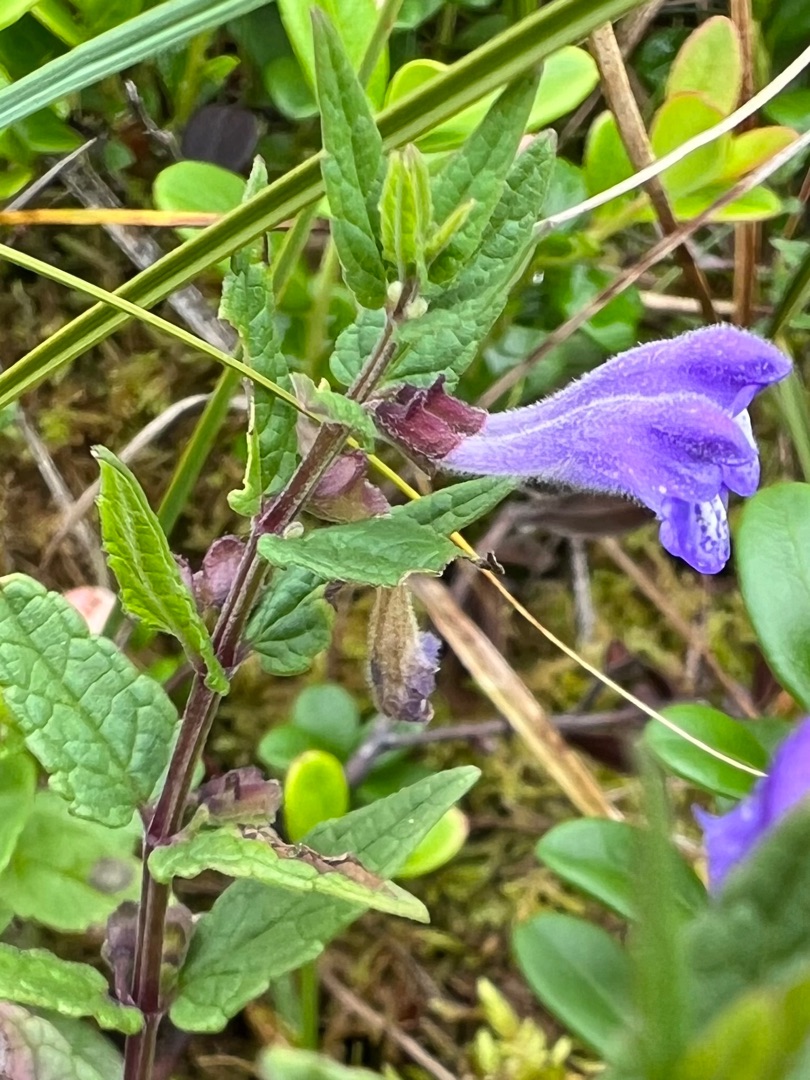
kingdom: Plantae
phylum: Tracheophyta
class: Magnoliopsida
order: Lamiales
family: Lamiaceae
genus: Scutellaria
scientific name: Scutellaria galericulata
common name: Almindelig skjolddrager
